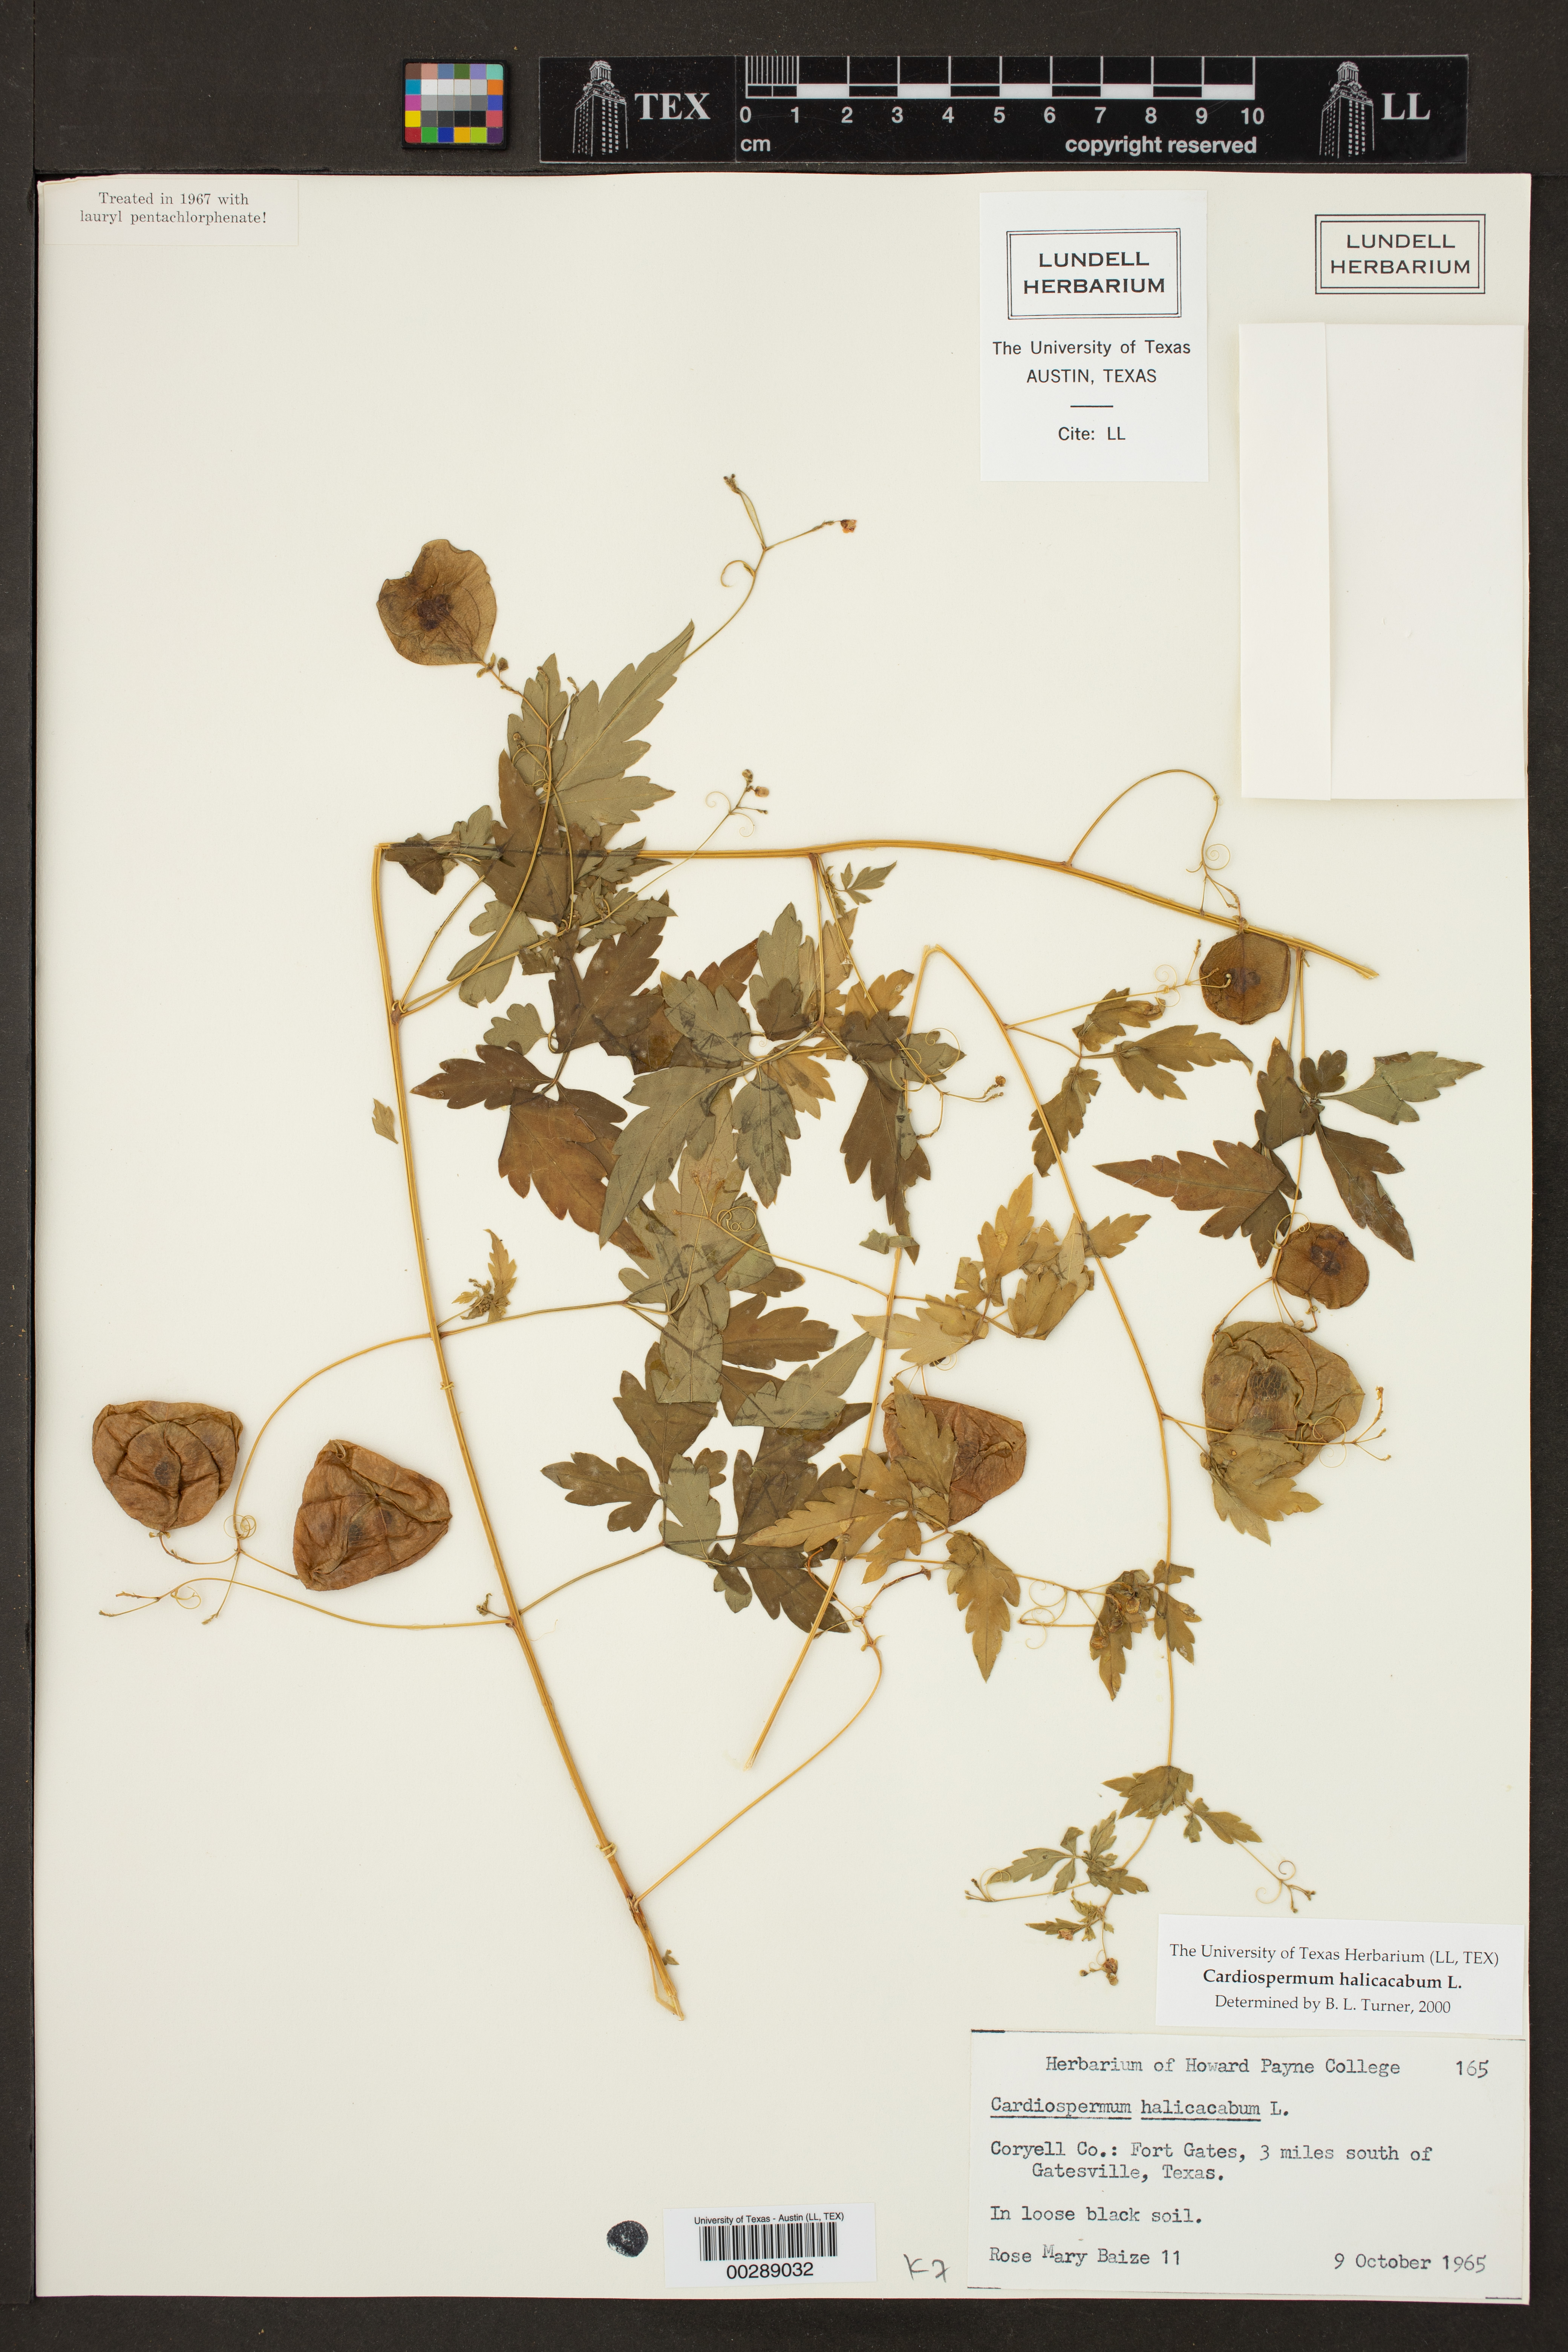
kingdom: Plantae
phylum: Tracheophyta
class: Magnoliopsida
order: Sapindales
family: Sapindaceae
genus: Cardiospermum
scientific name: Cardiospermum halicacabum
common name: Balloon vine
